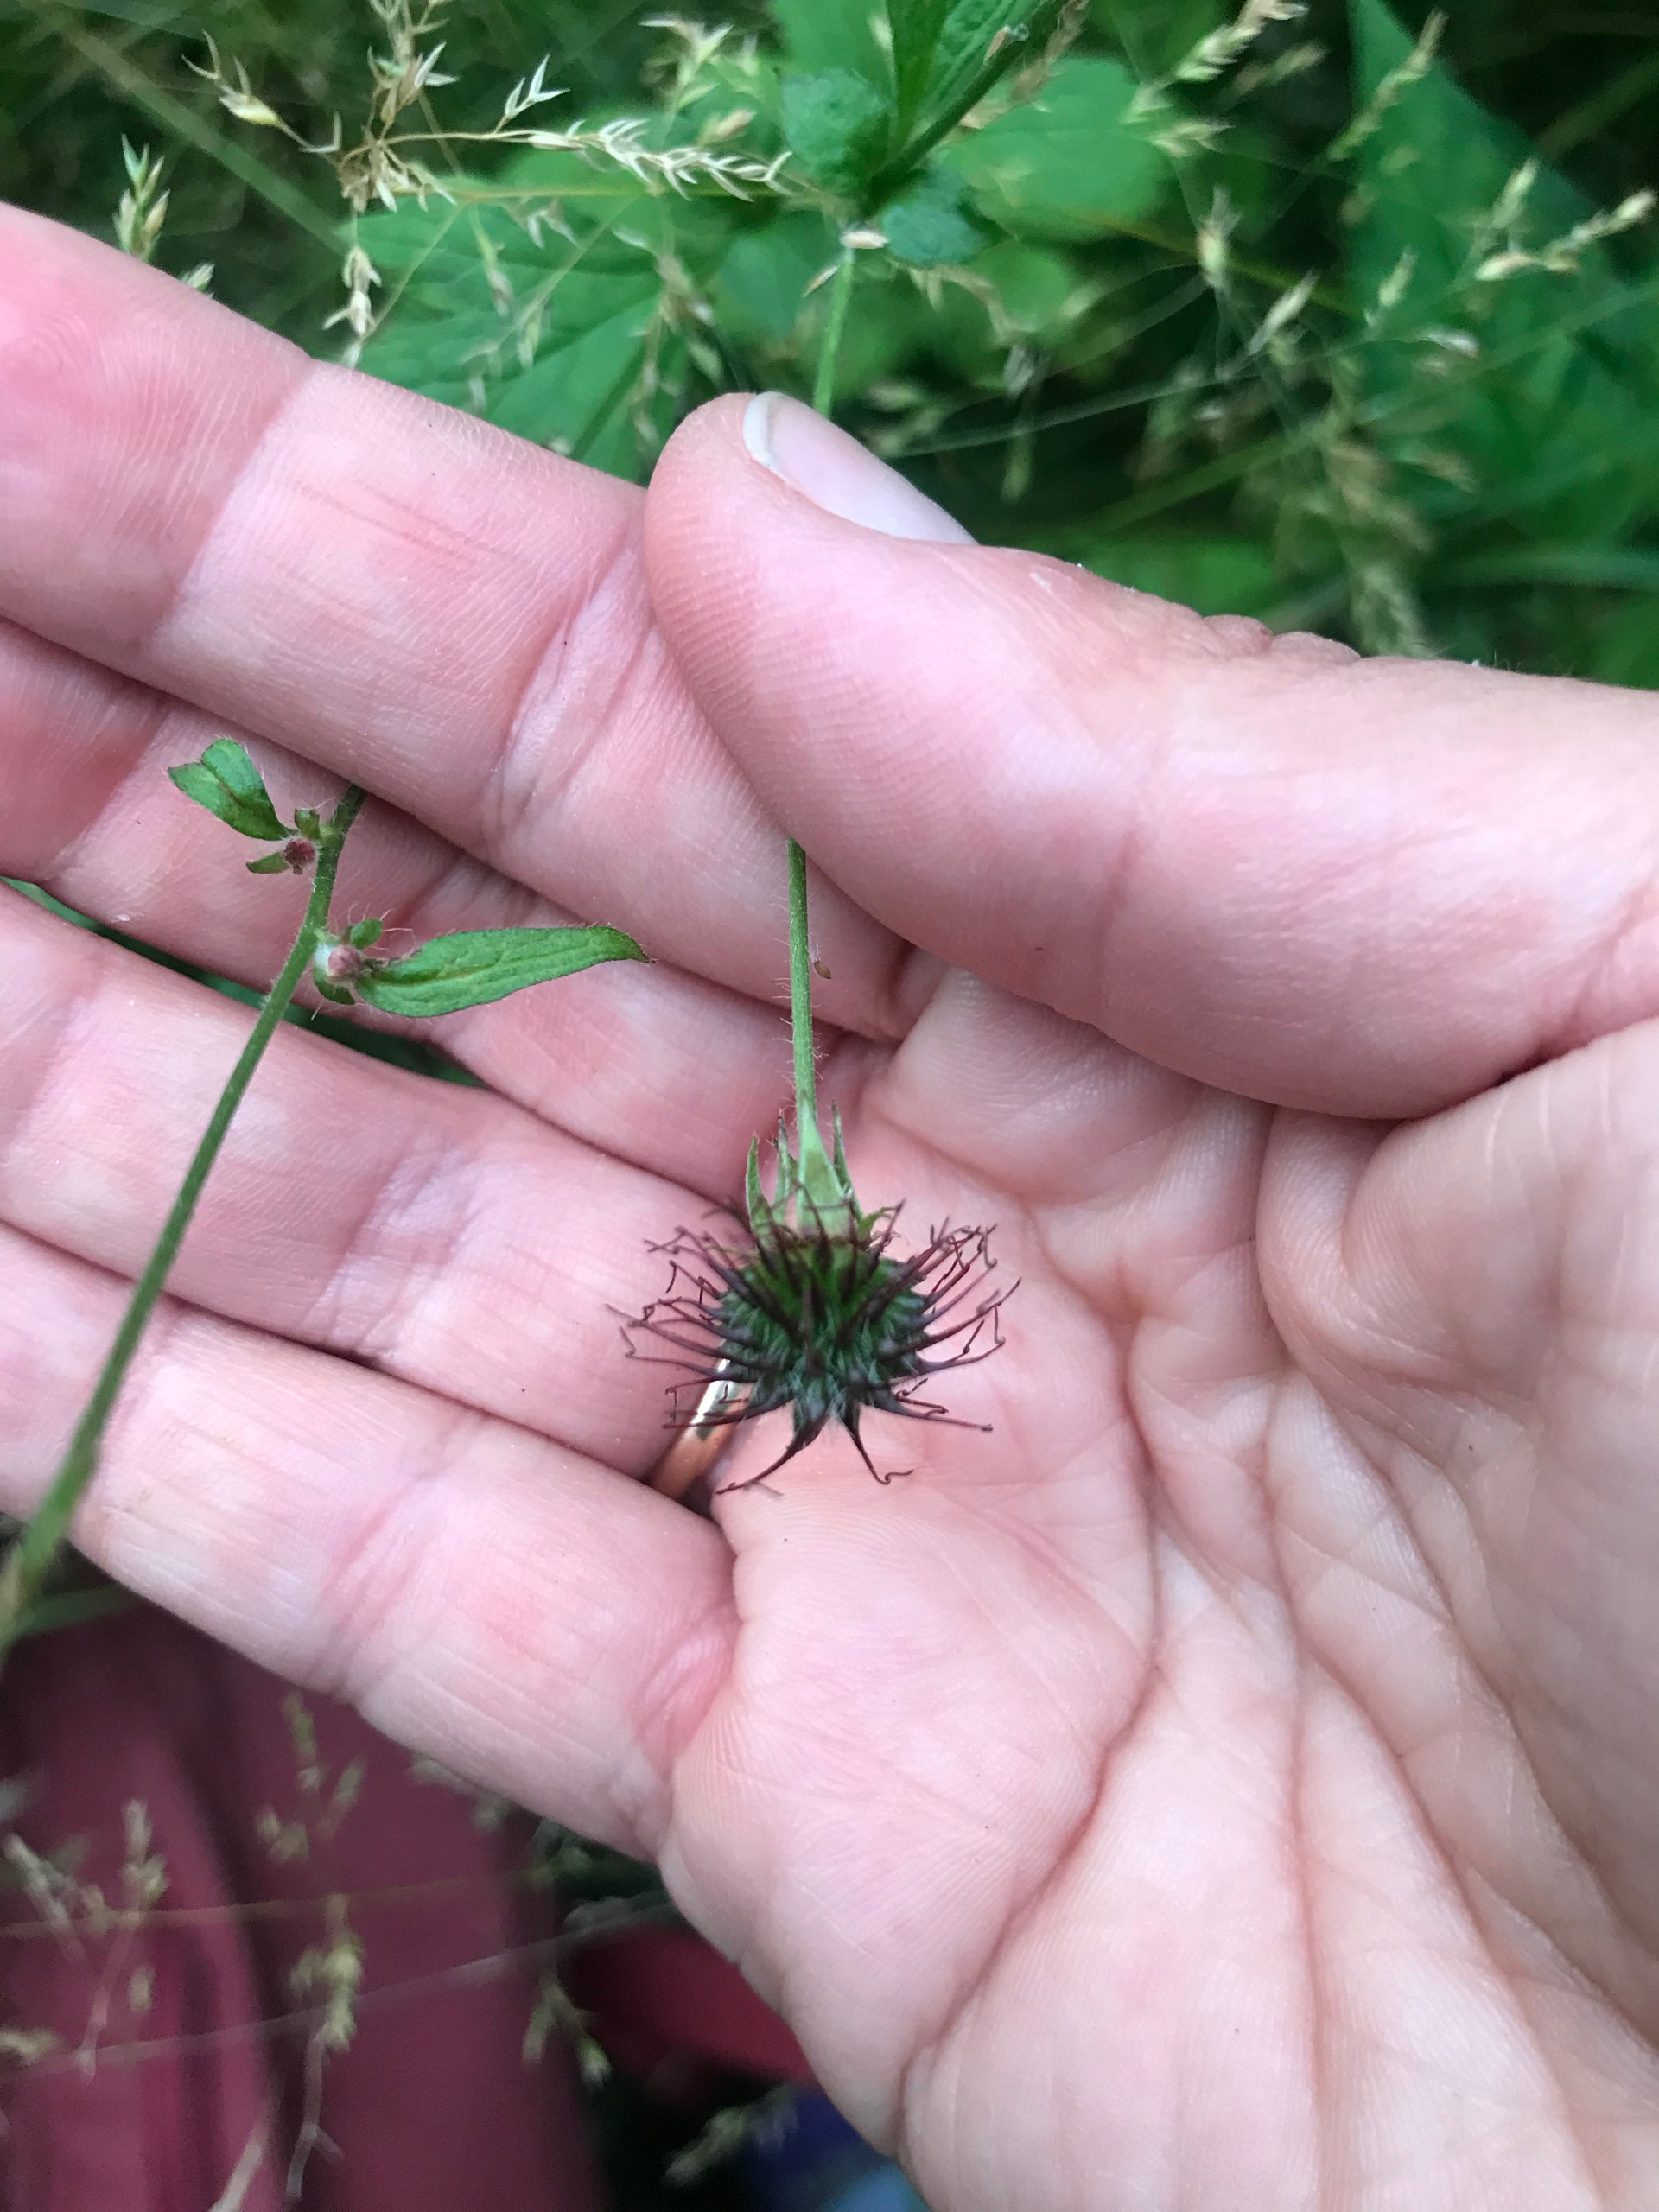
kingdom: Plantae
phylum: Tracheophyta
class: Magnoliopsida
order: Rosales
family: Rosaceae
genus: Geum
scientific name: Geum urbanum
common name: Feber-nellikerod
